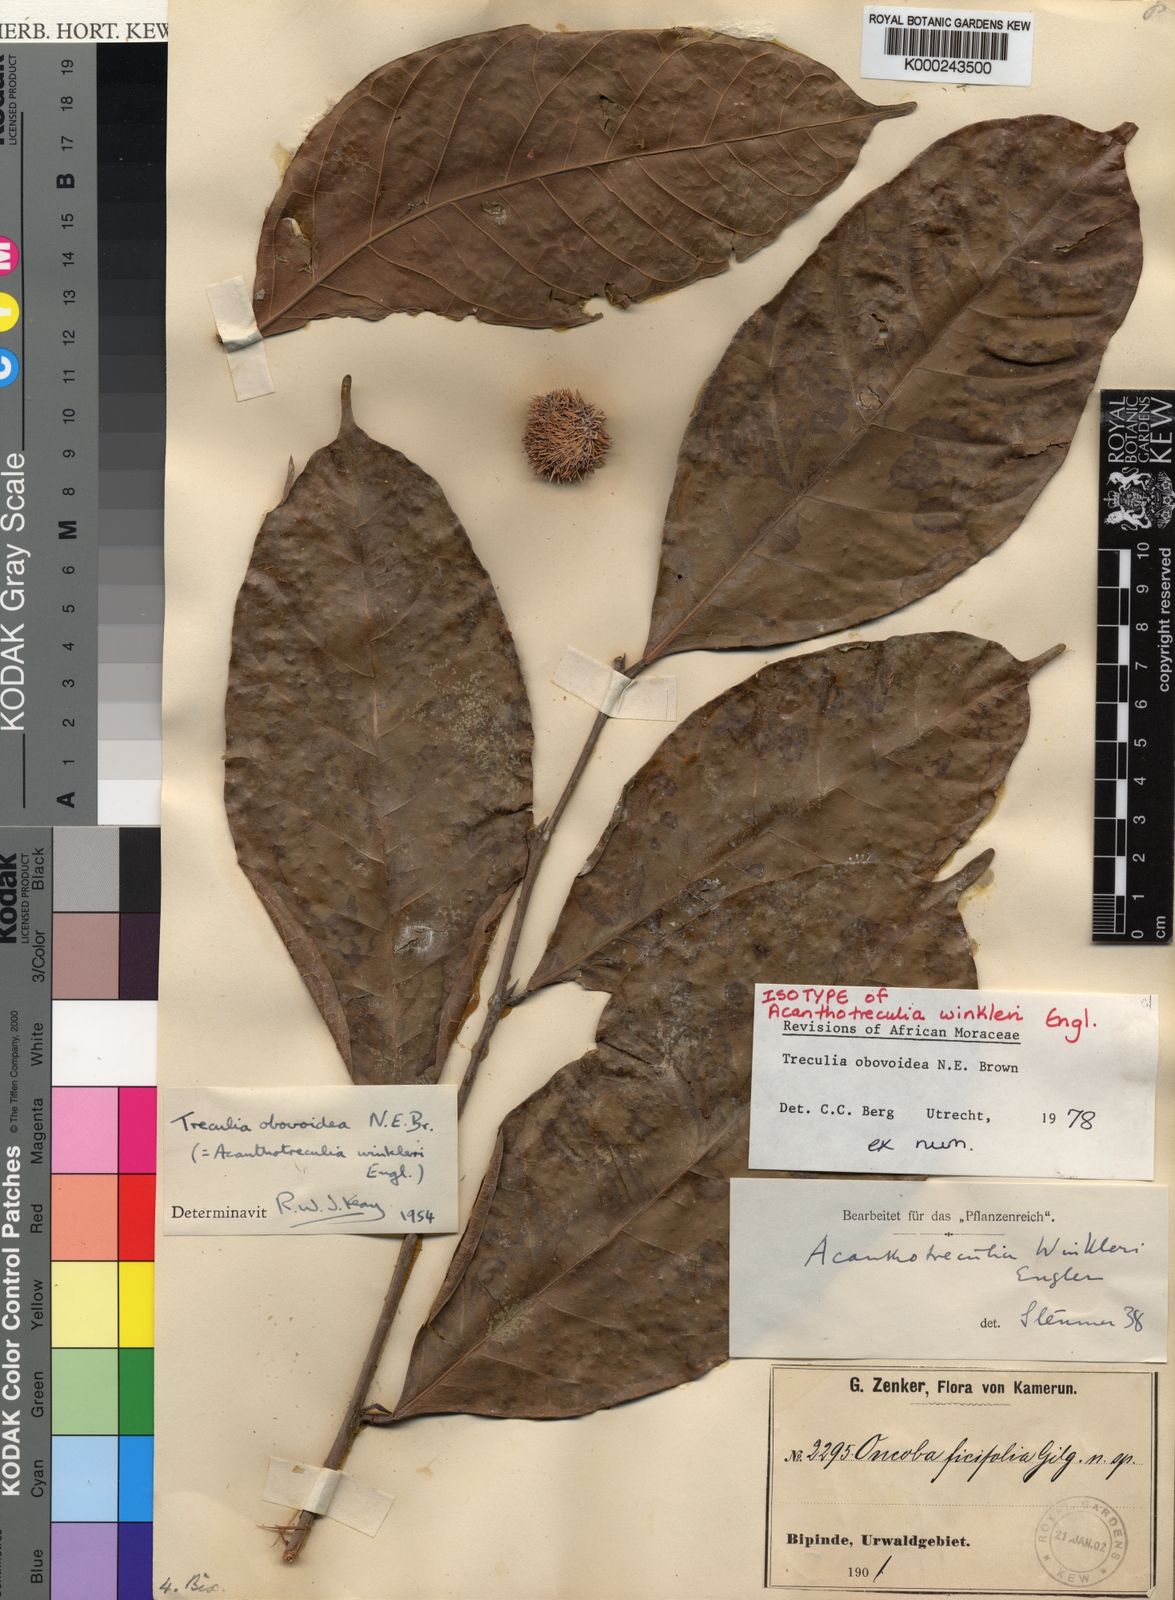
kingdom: Plantae
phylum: Tracheophyta
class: Magnoliopsida
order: Rosales
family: Moraceae
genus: Treculia
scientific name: Treculia obovoidea
